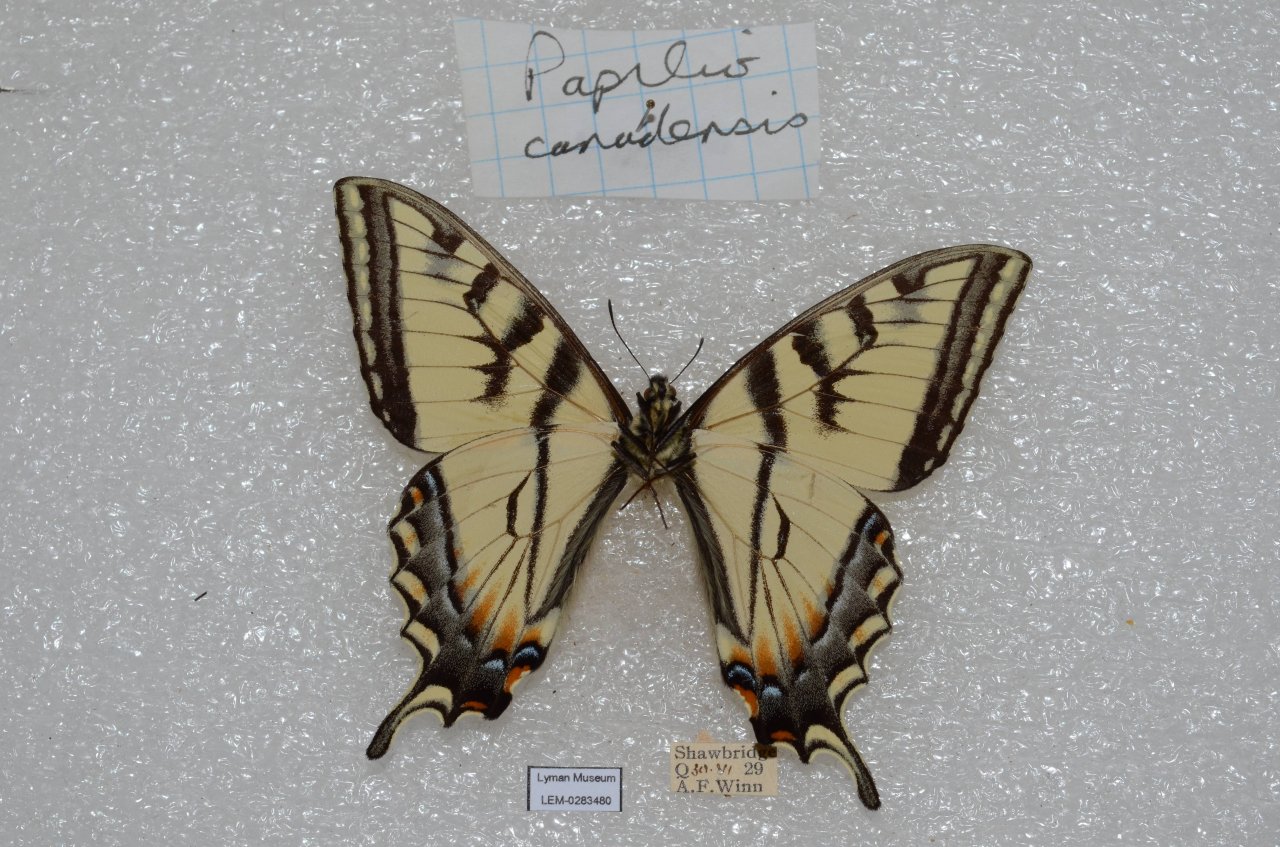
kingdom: Animalia
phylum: Arthropoda
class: Insecta
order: Lepidoptera
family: Papilionidae
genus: Pterourus
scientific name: Pterourus canadensis
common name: Canadian Tiger Swallowtail
